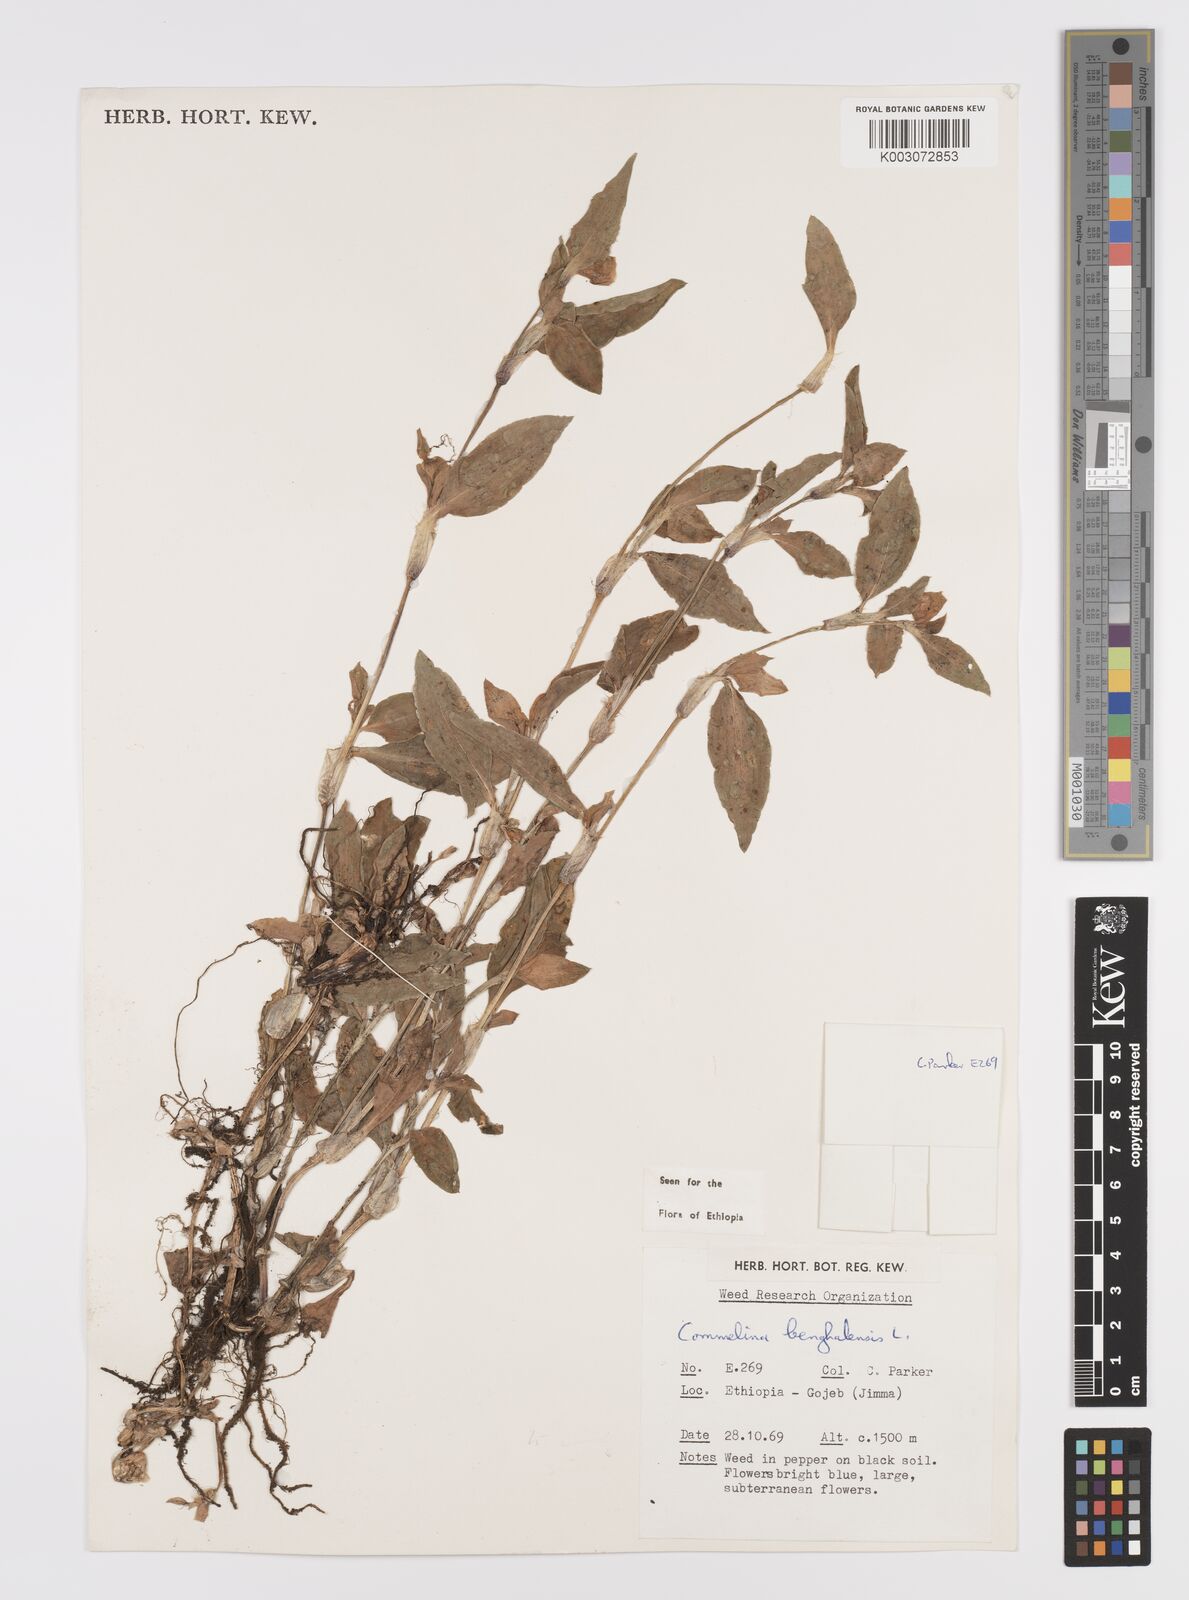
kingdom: Plantae
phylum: Tracheophyta
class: Liliopsida
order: Commelinales
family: Commelinaceae
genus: Commelina
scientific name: Commelina benghalensis
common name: Jio
